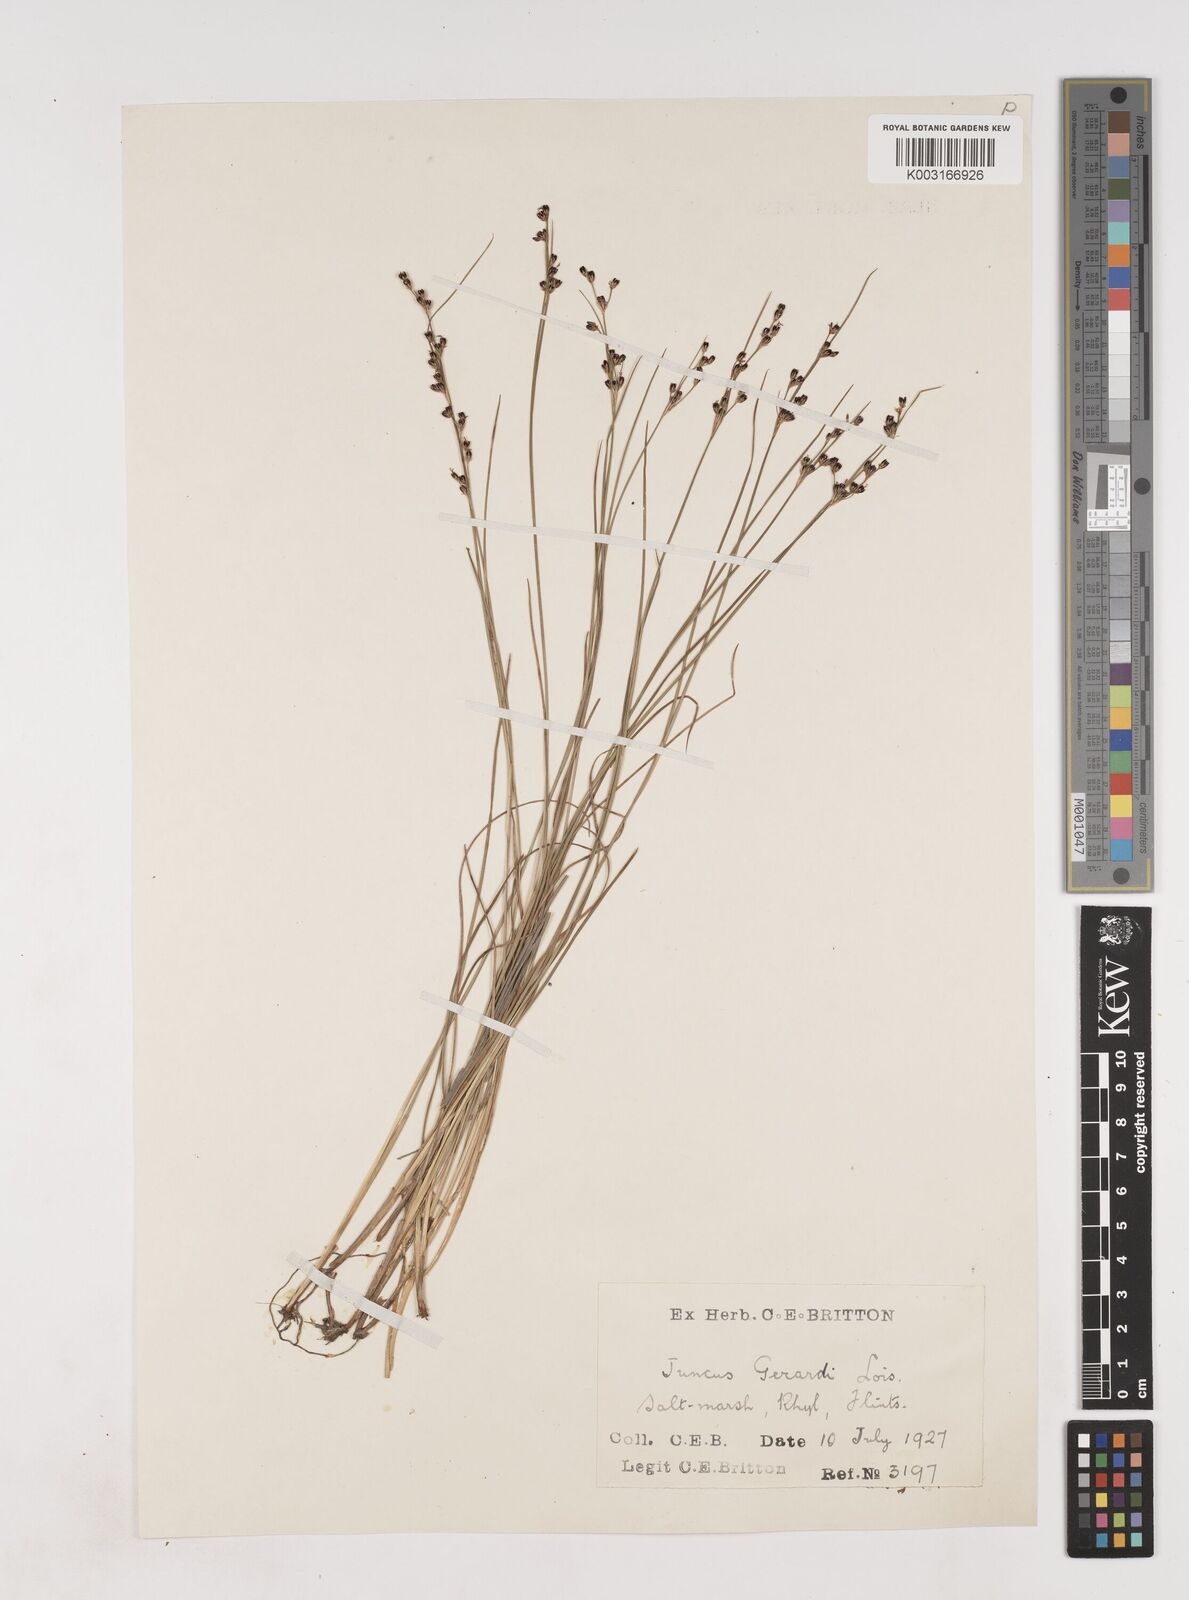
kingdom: Plantae
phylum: Tracheophyta
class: Liliopsida
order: Poales
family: Juncaceae
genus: Juncus
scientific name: Juncus gerardi
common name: Saltmarsh rush
